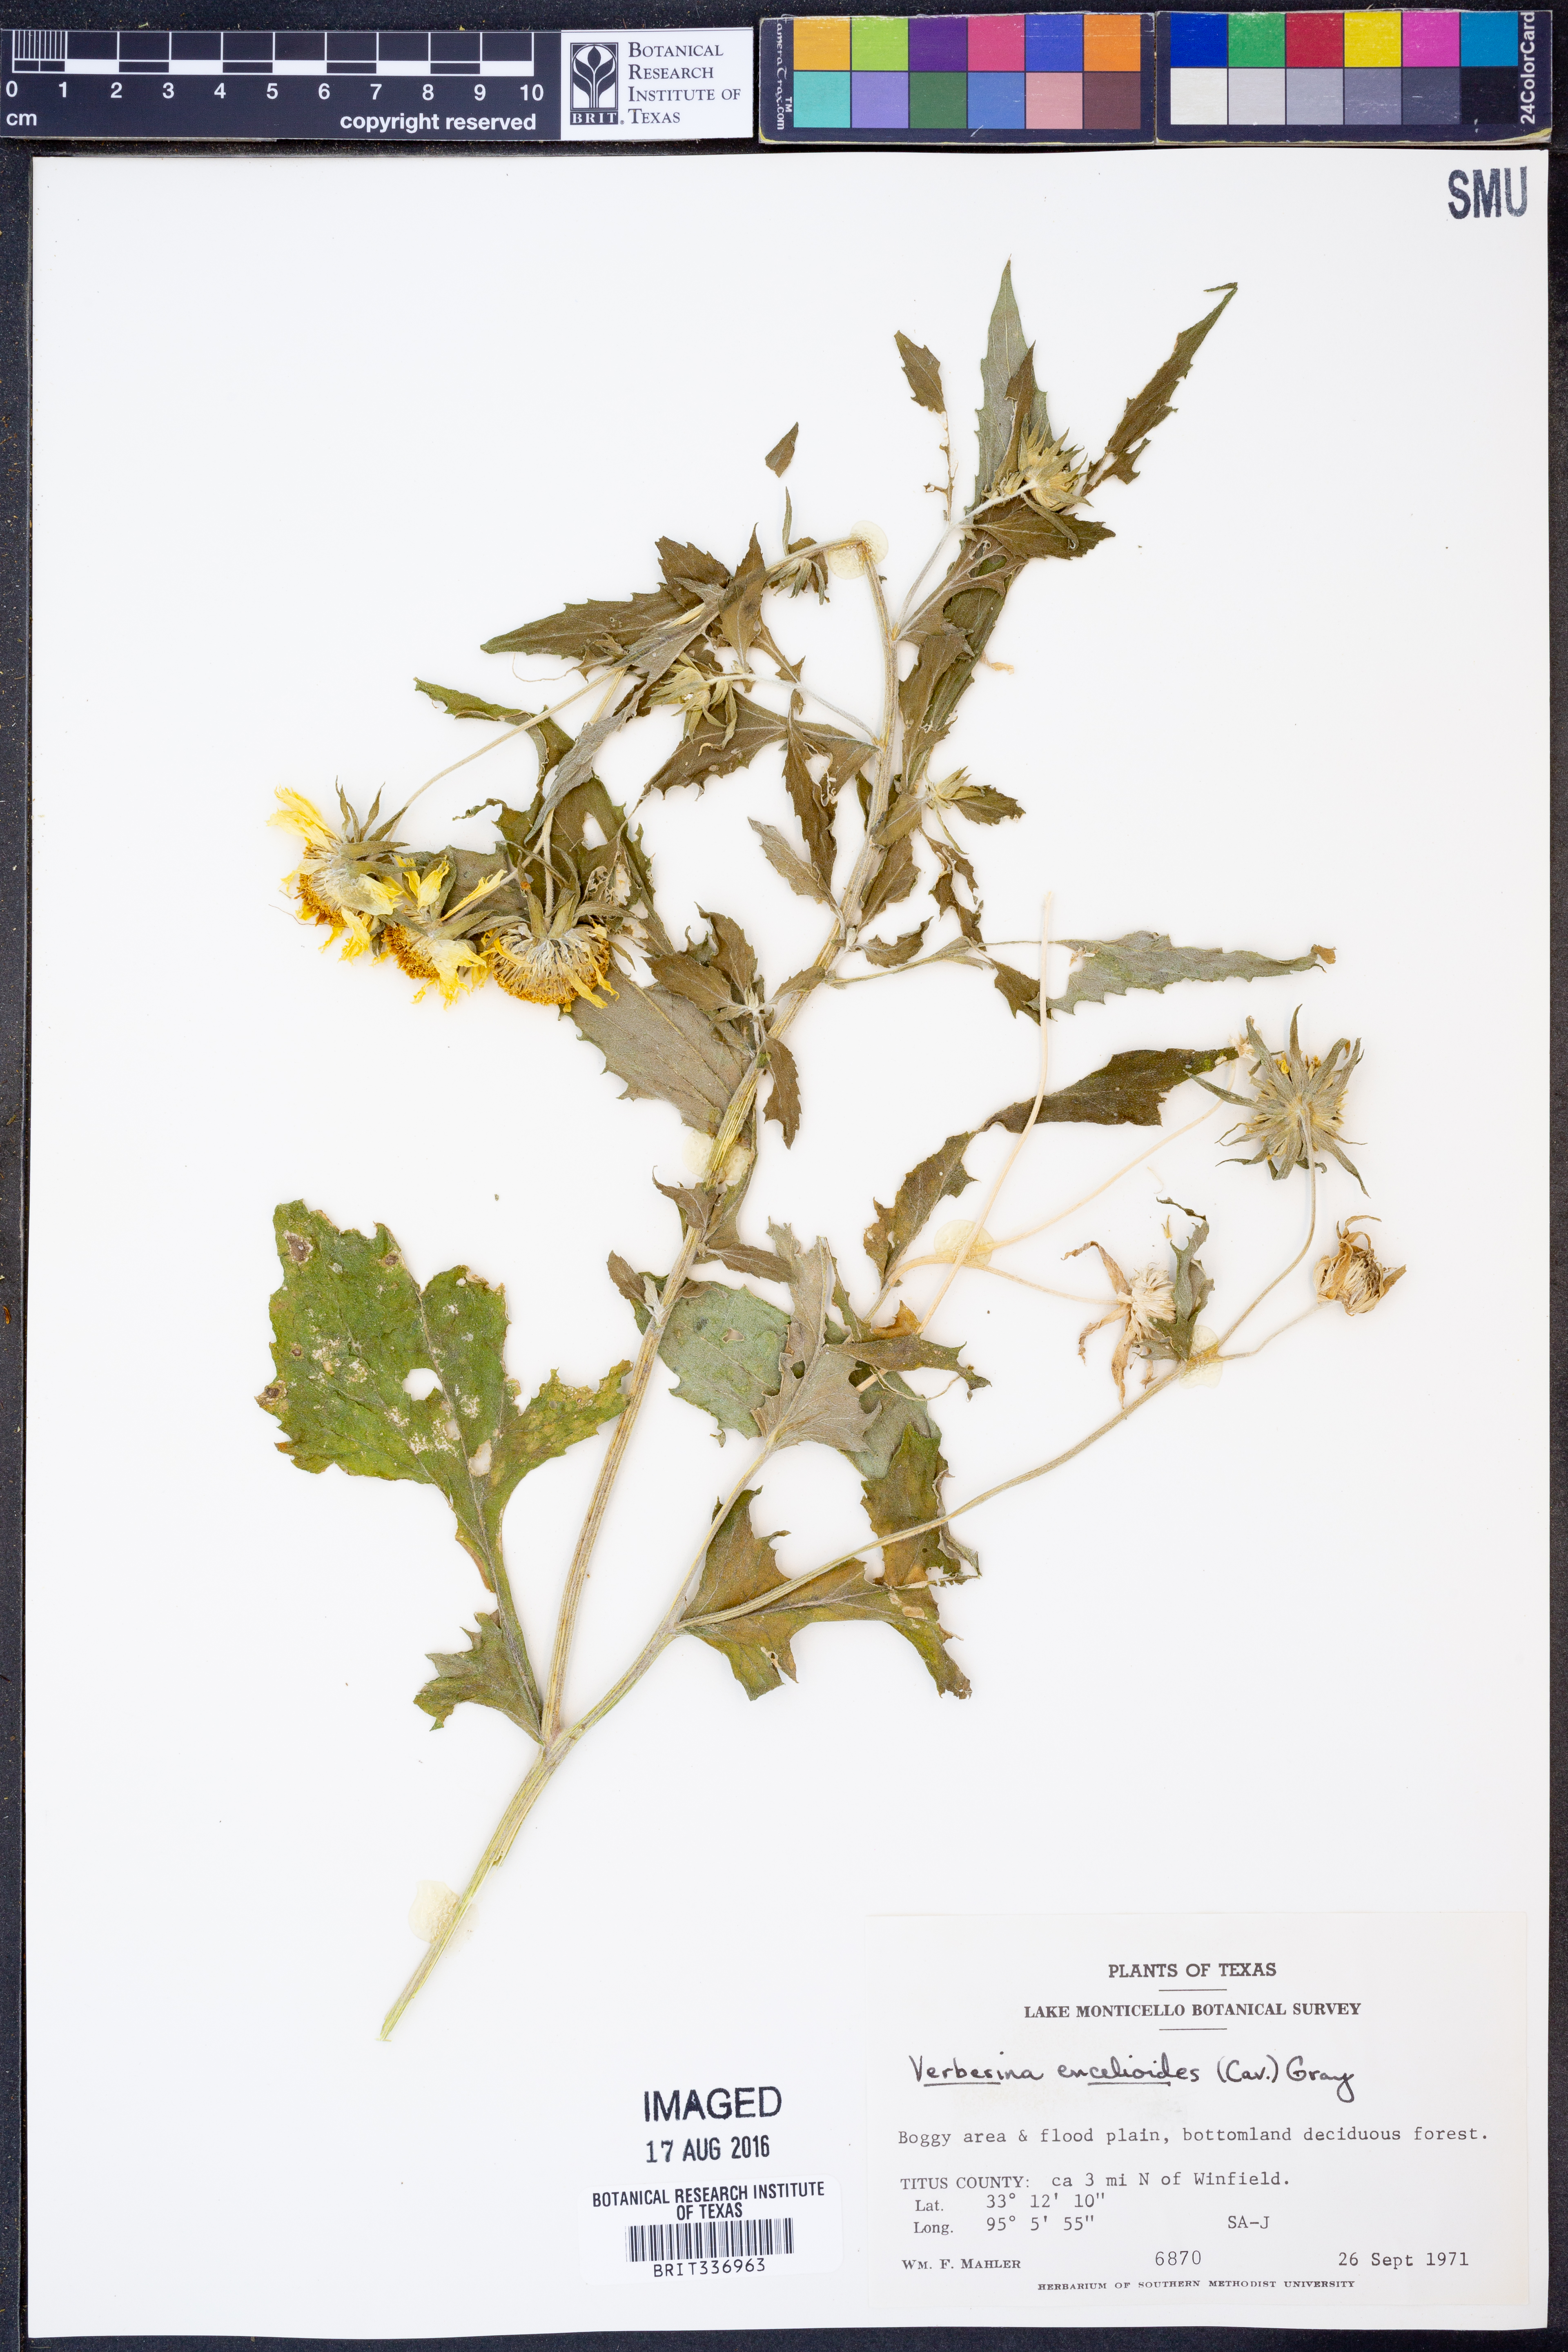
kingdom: Plantae
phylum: Tracheophyta
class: Magnoliopsida
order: Asterales
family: Asteraceae
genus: Verbesina
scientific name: Verbesina encelioides
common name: Golden crownbeard
